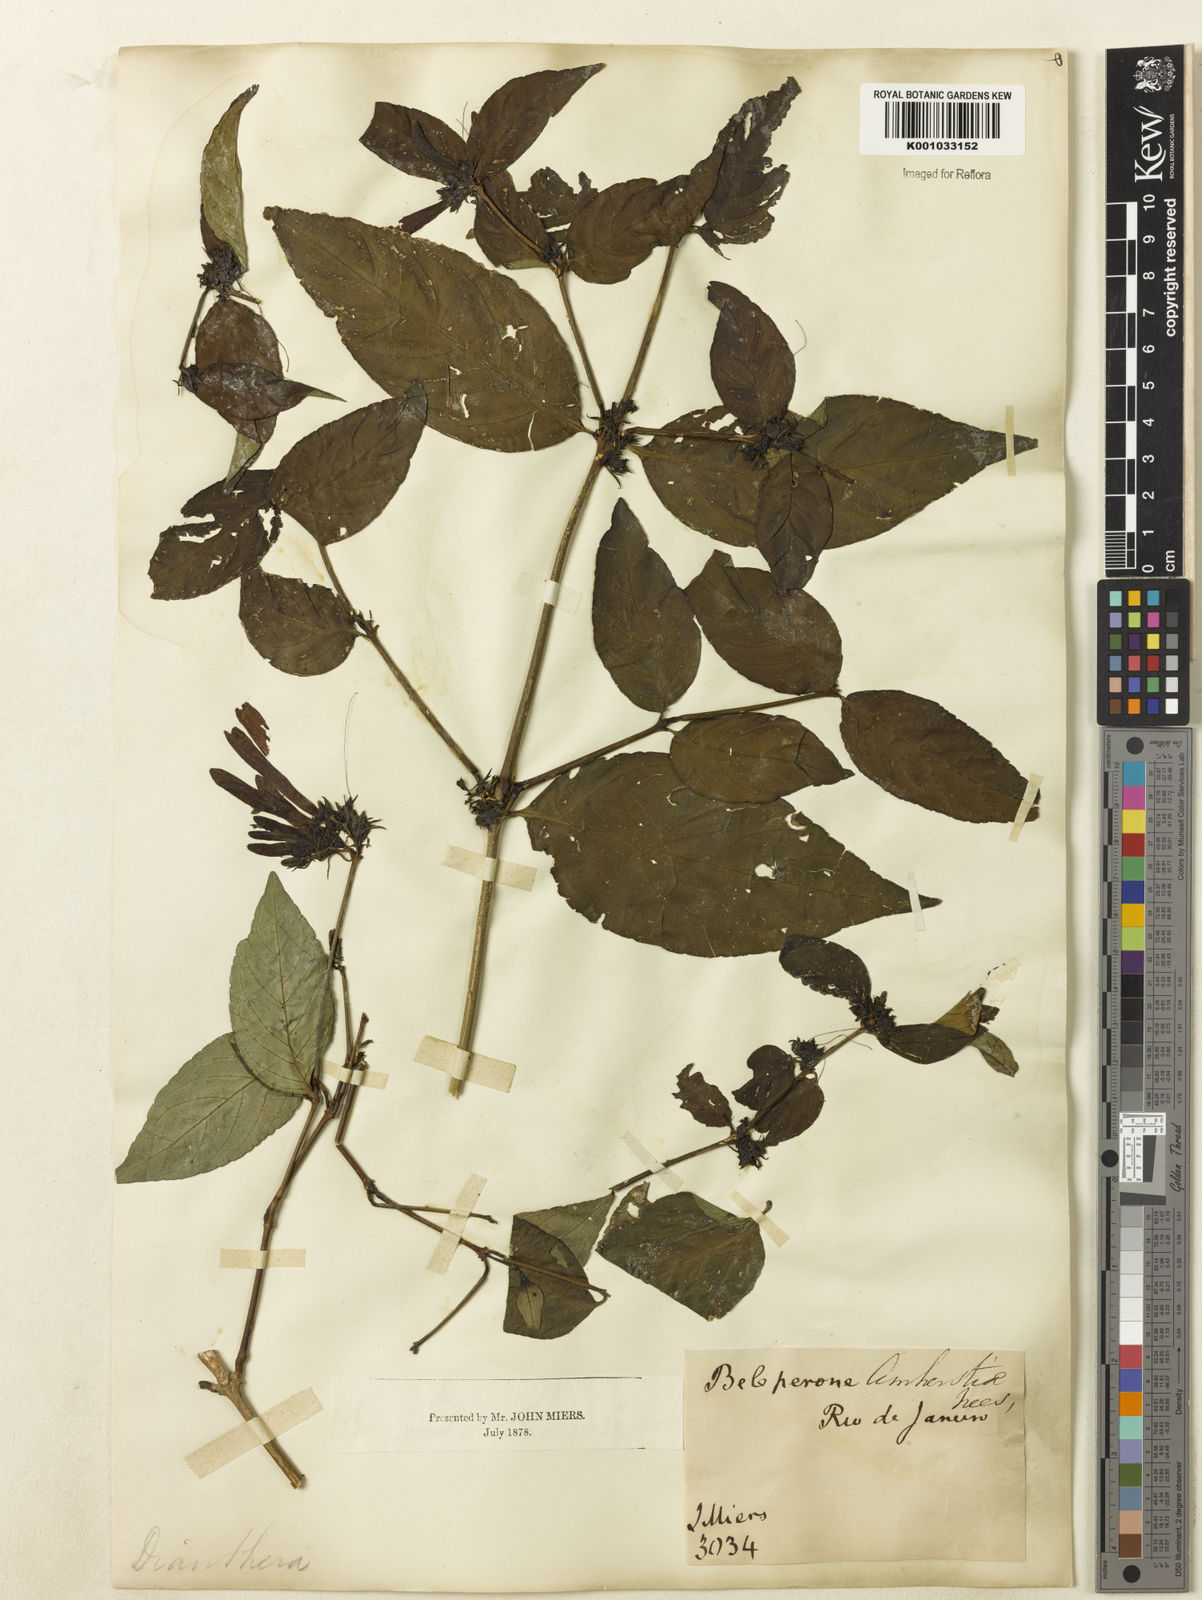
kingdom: Plantae
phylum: Tracheophyta
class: Magnoliopsida
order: Lamiales
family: Acanthaceae
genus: Justicia
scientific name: Justicia brasiliana
